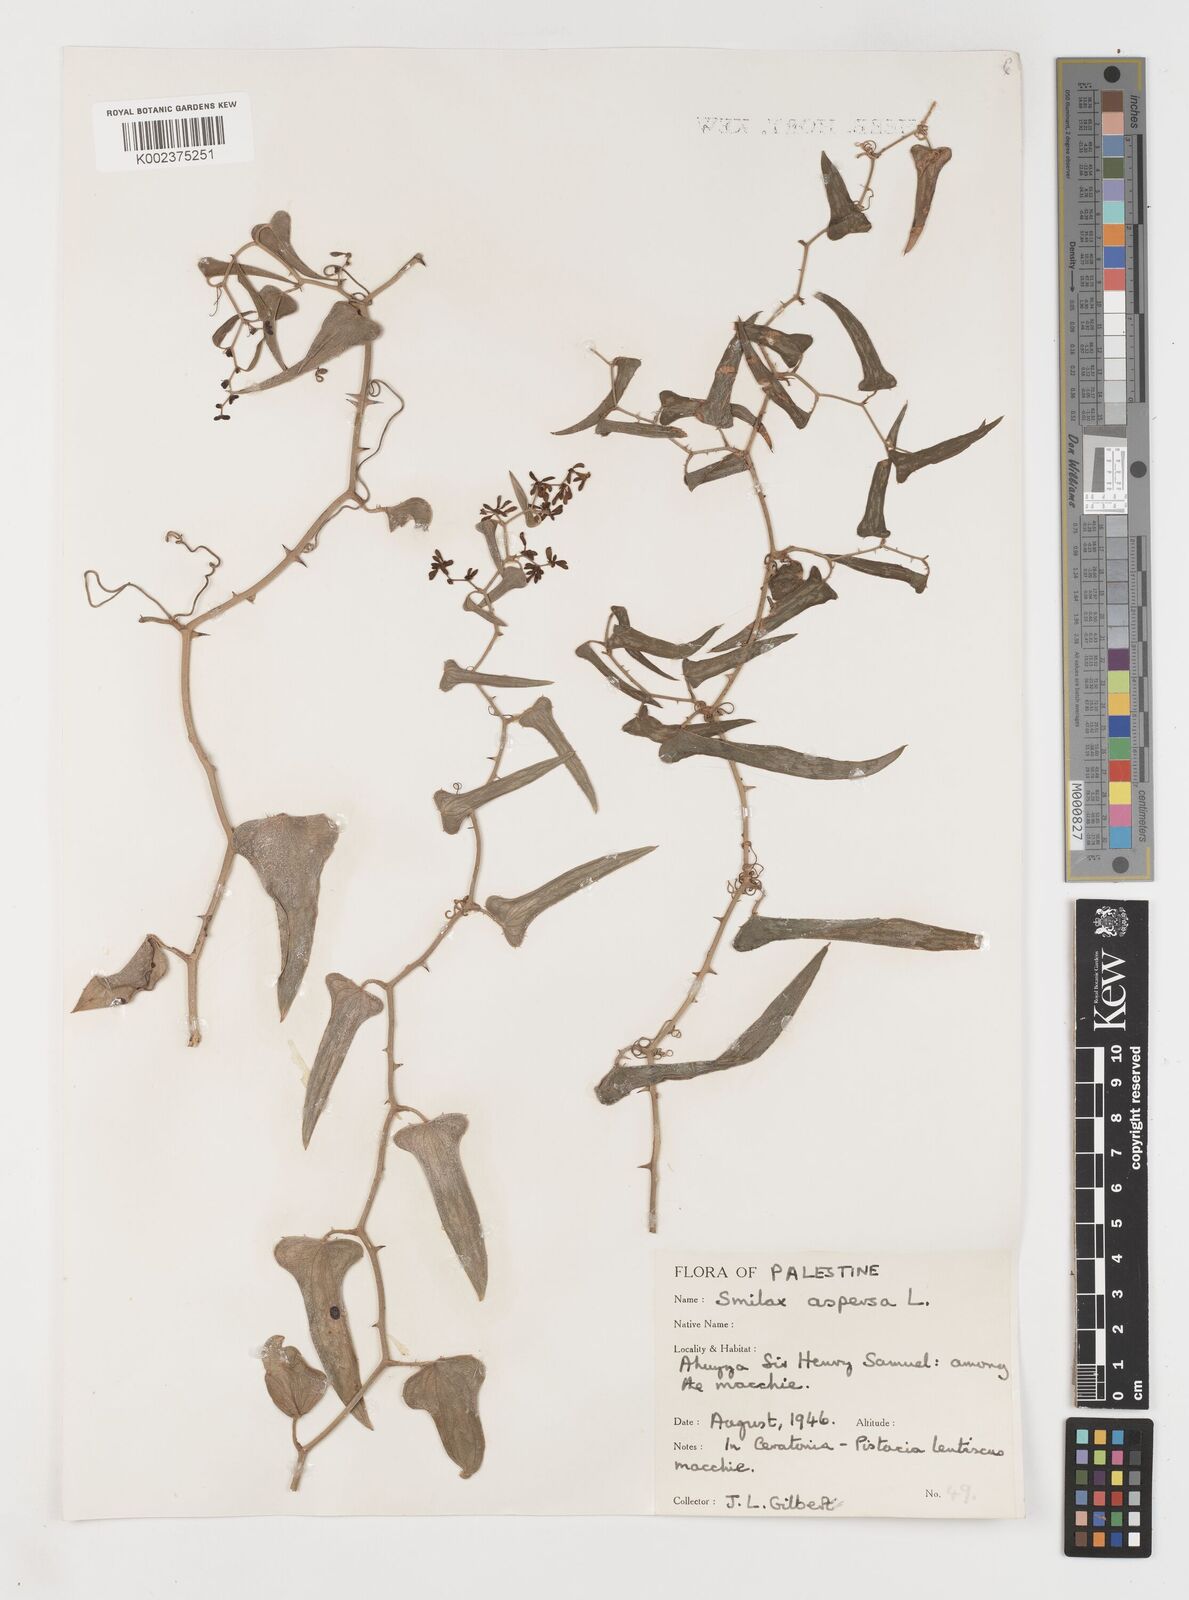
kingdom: Plantae
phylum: Tracheophyta
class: Liliopsida
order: Liliales
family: Smilacaceae
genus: Smilax
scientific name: Smilax aspera
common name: Common smilax
